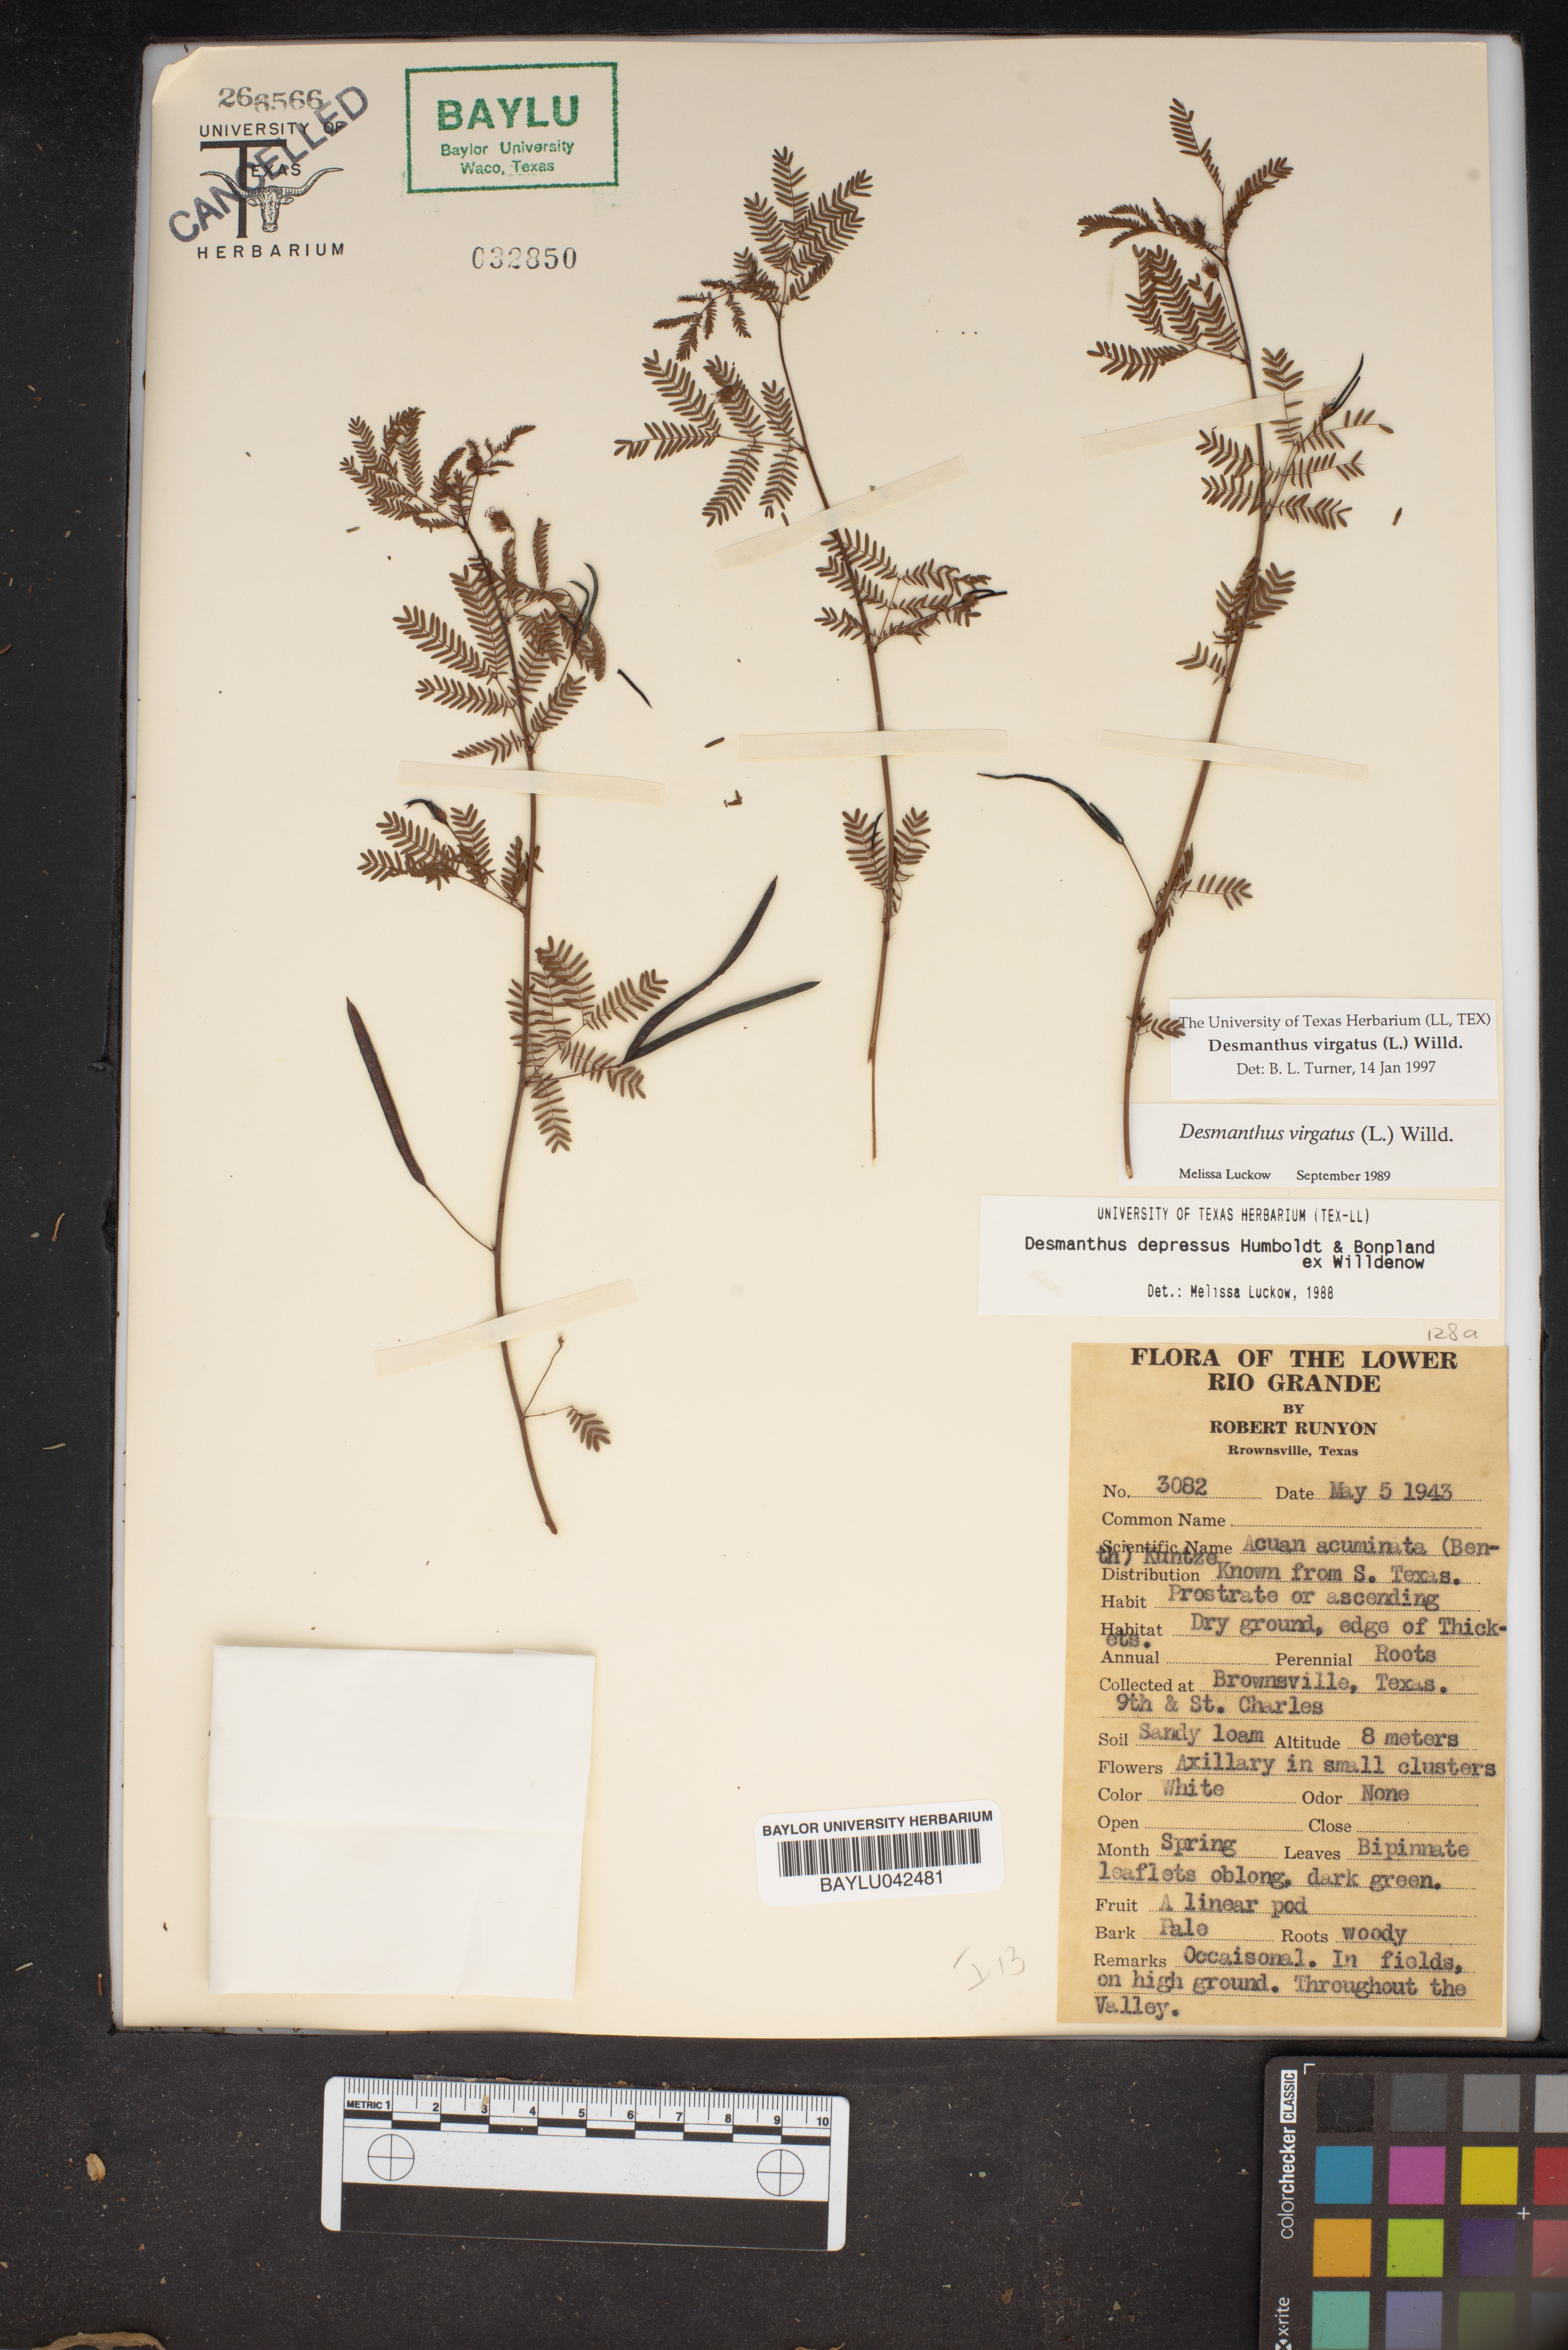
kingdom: Plantae
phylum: Tracheophyta
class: Magnoliopsida
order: Fabales
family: Fabaceae
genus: Desmanthus
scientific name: Desmanthus virgatus
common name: Wild tantan
